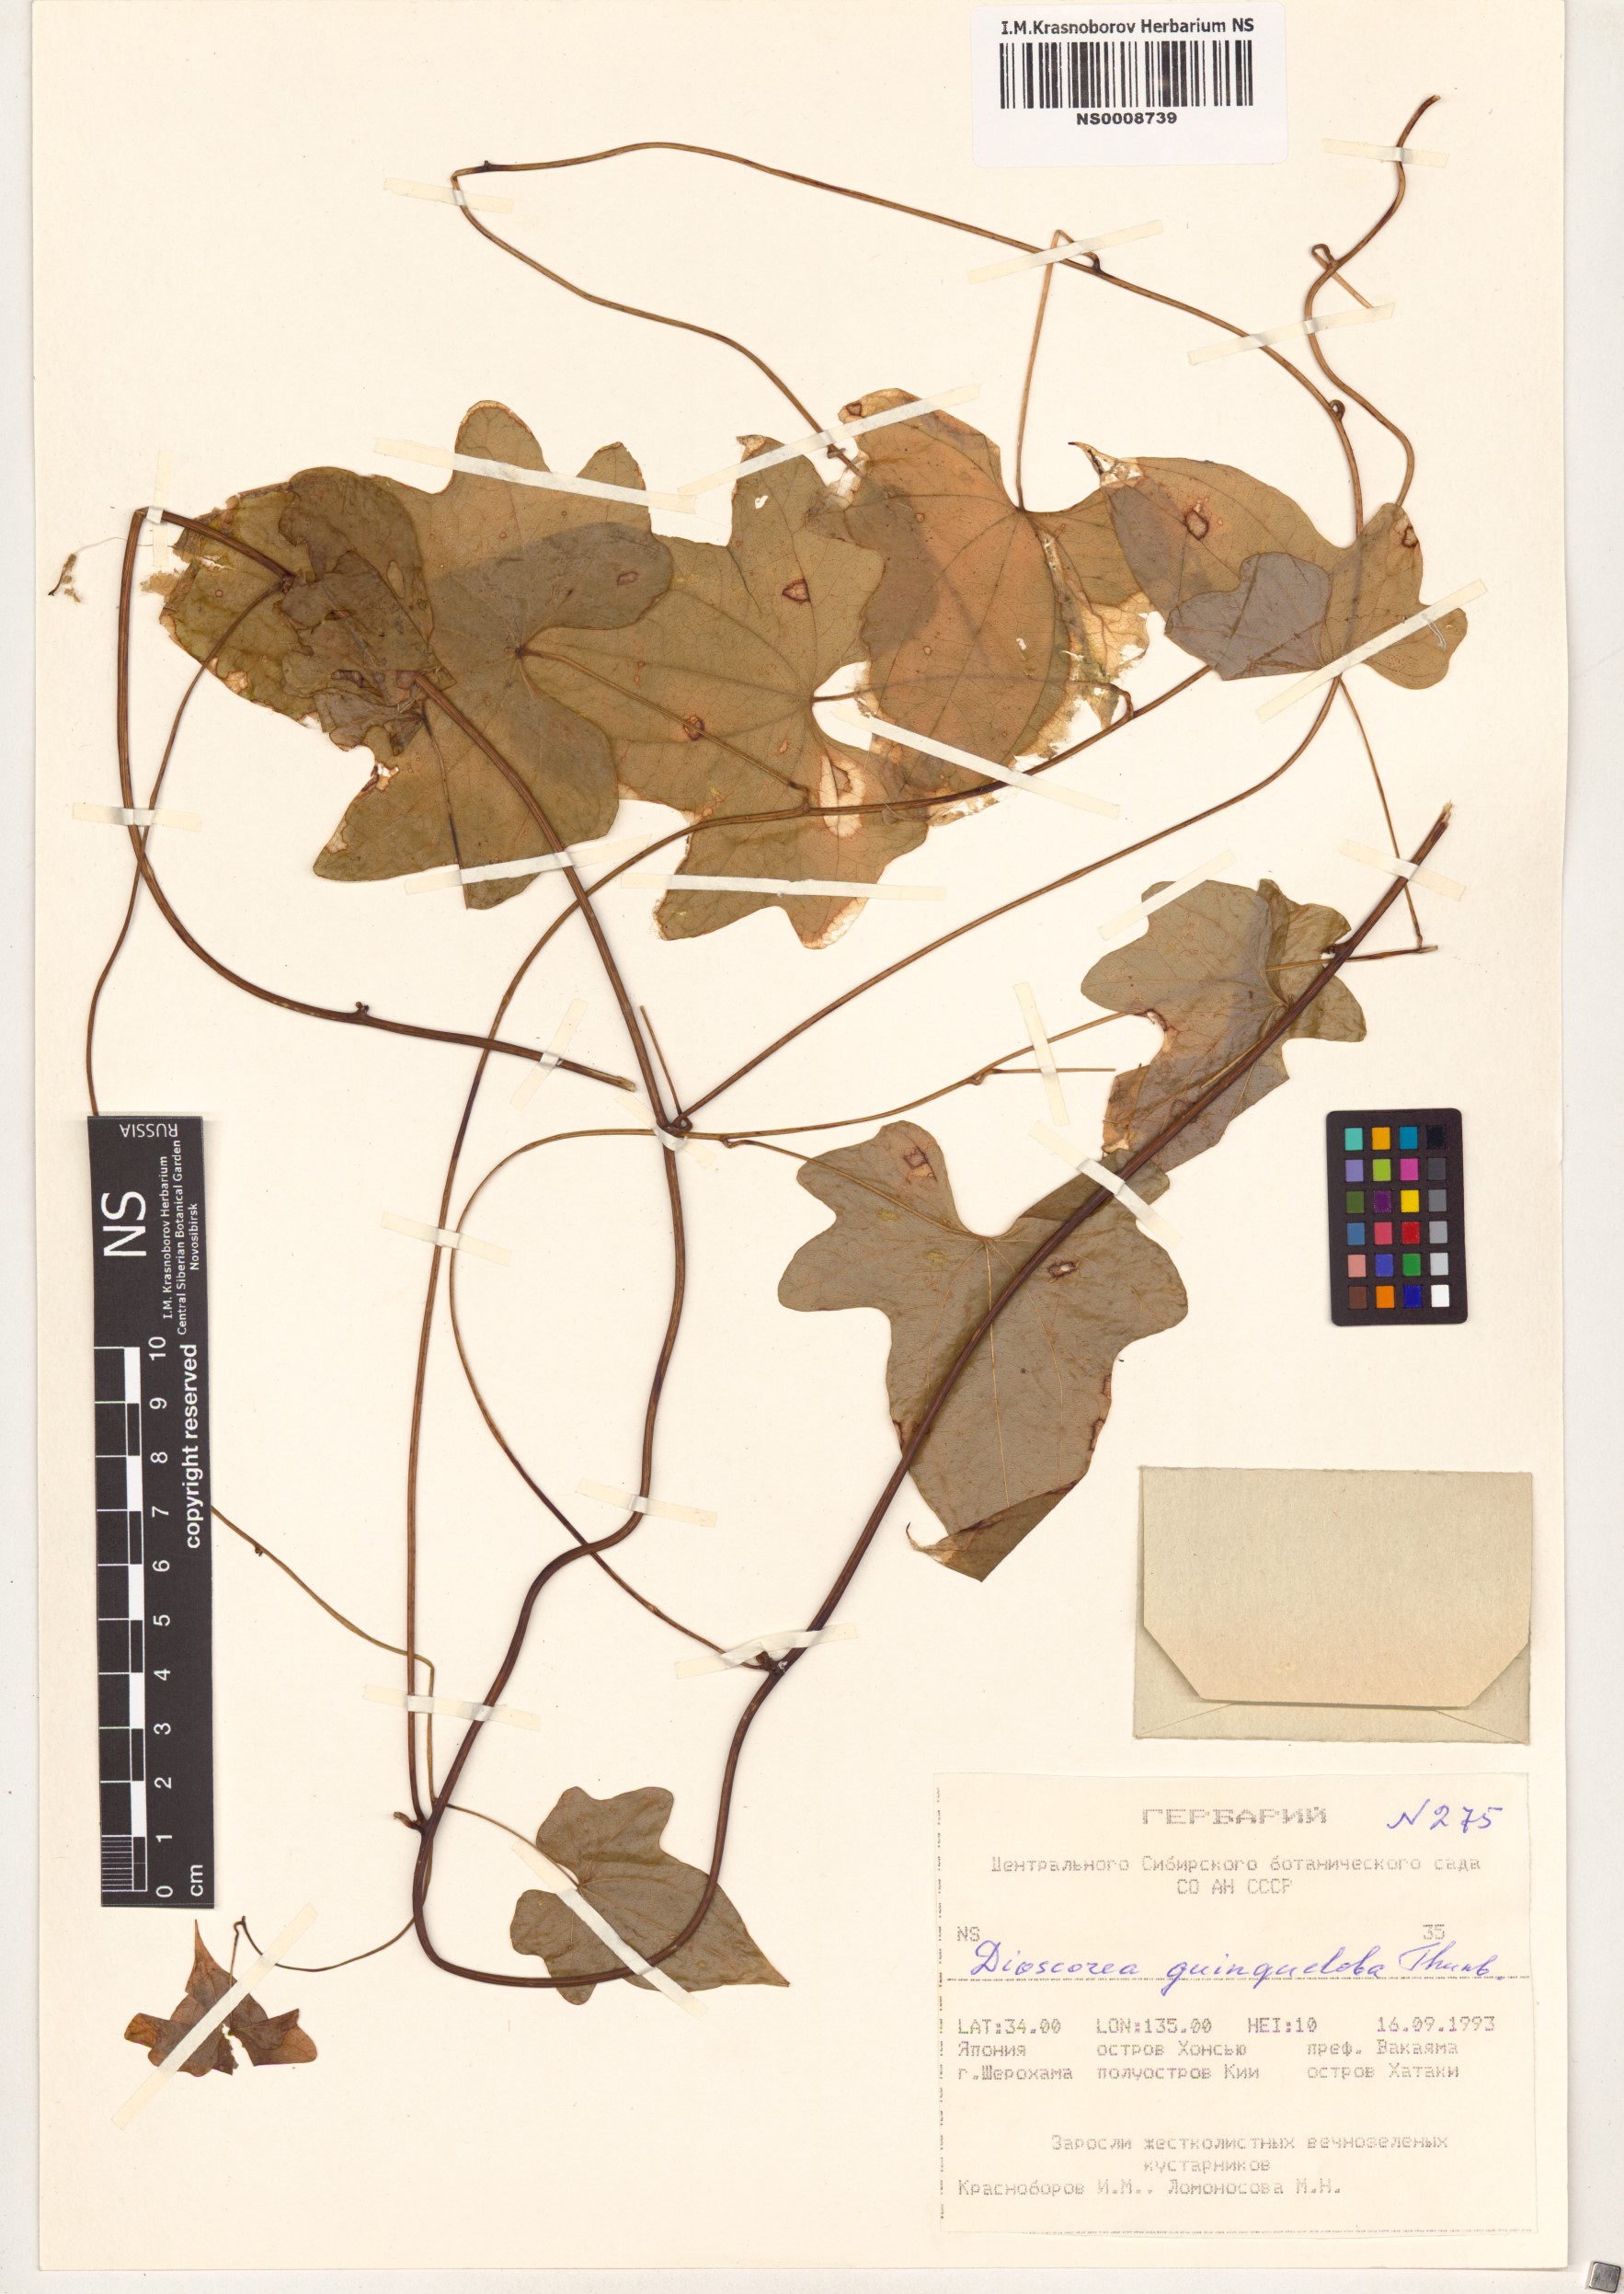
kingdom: Plantae
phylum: Tracheophyta
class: Liliopsida
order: Dioscoreales
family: Dioscoreaceae
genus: Dioscorea
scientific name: Dioscorea quinquelobata
